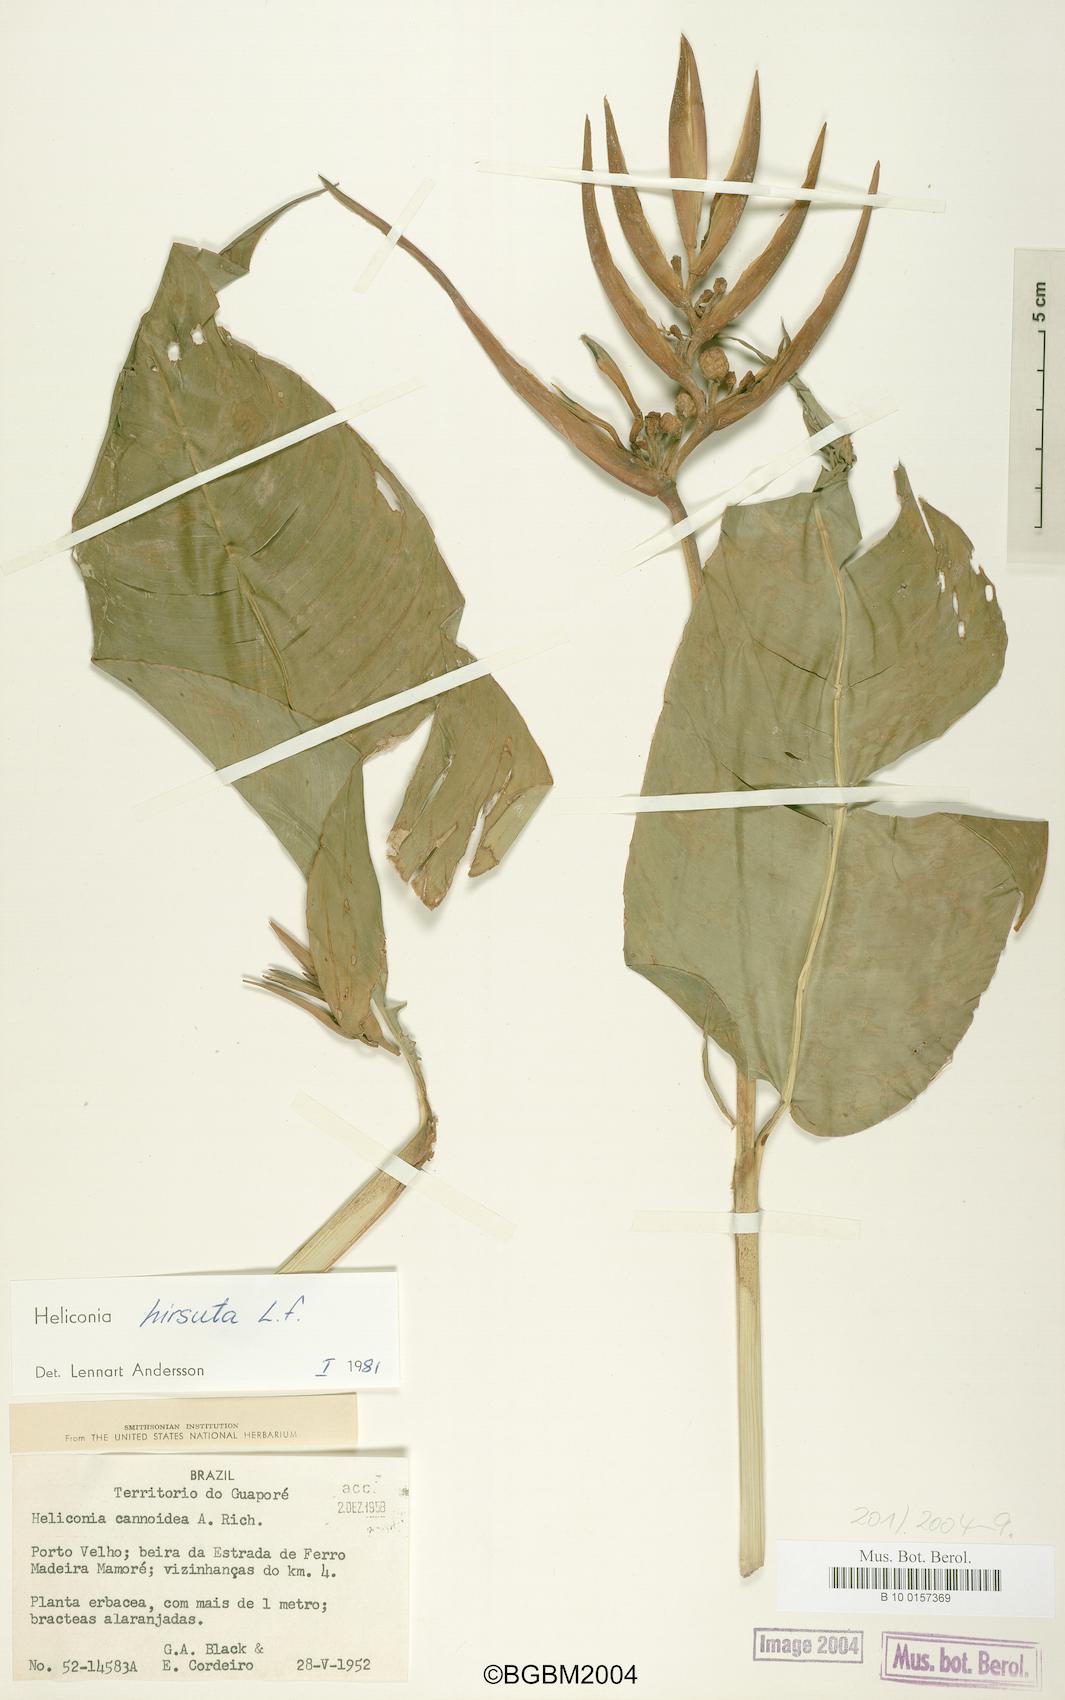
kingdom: Plantae
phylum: Tracheophyta
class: Liliopsida
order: Zingiberales
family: Heliconiaceae
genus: Heliconia
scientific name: Heliconia hirsuta
